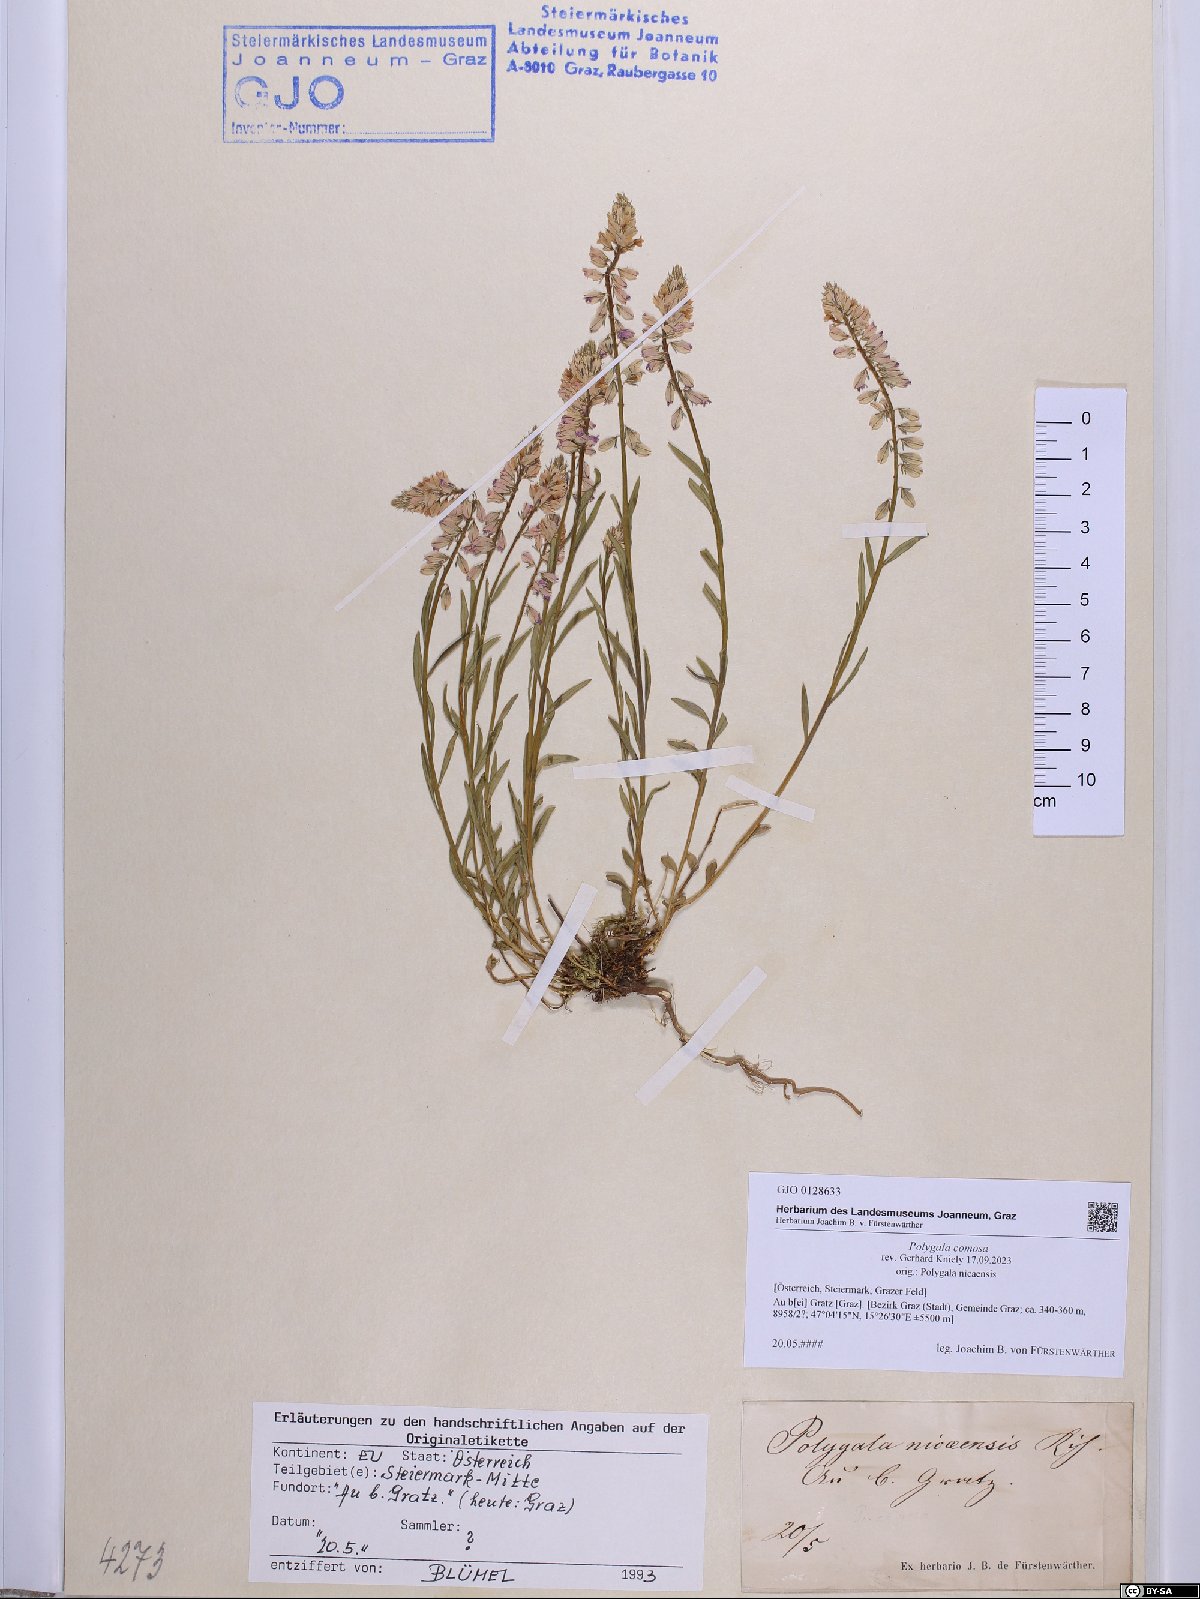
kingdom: Plantae
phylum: Tracheophyta
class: Magnoliopsida
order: Fabales
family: Polygalaceae
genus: Polygala
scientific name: Polygala comosa
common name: Tufted milkwort
